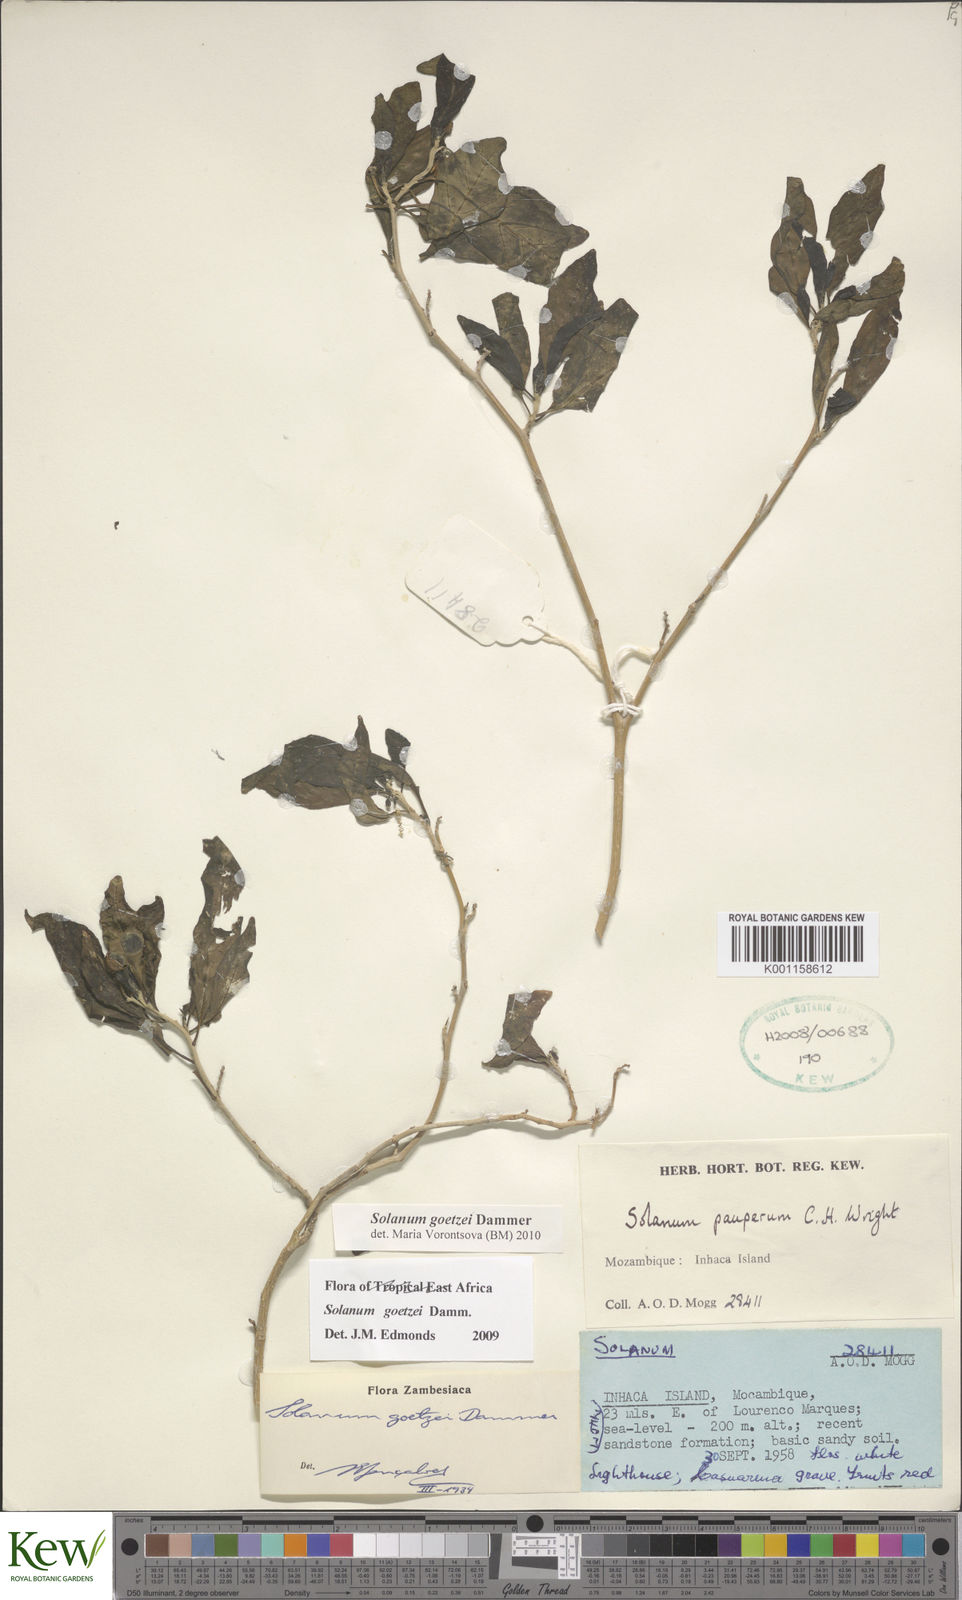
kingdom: Plantae
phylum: Tracheophyta
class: Magnoliopsida
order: Solanales
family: Solanaceae
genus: Solanum
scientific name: Solanum goetzei
